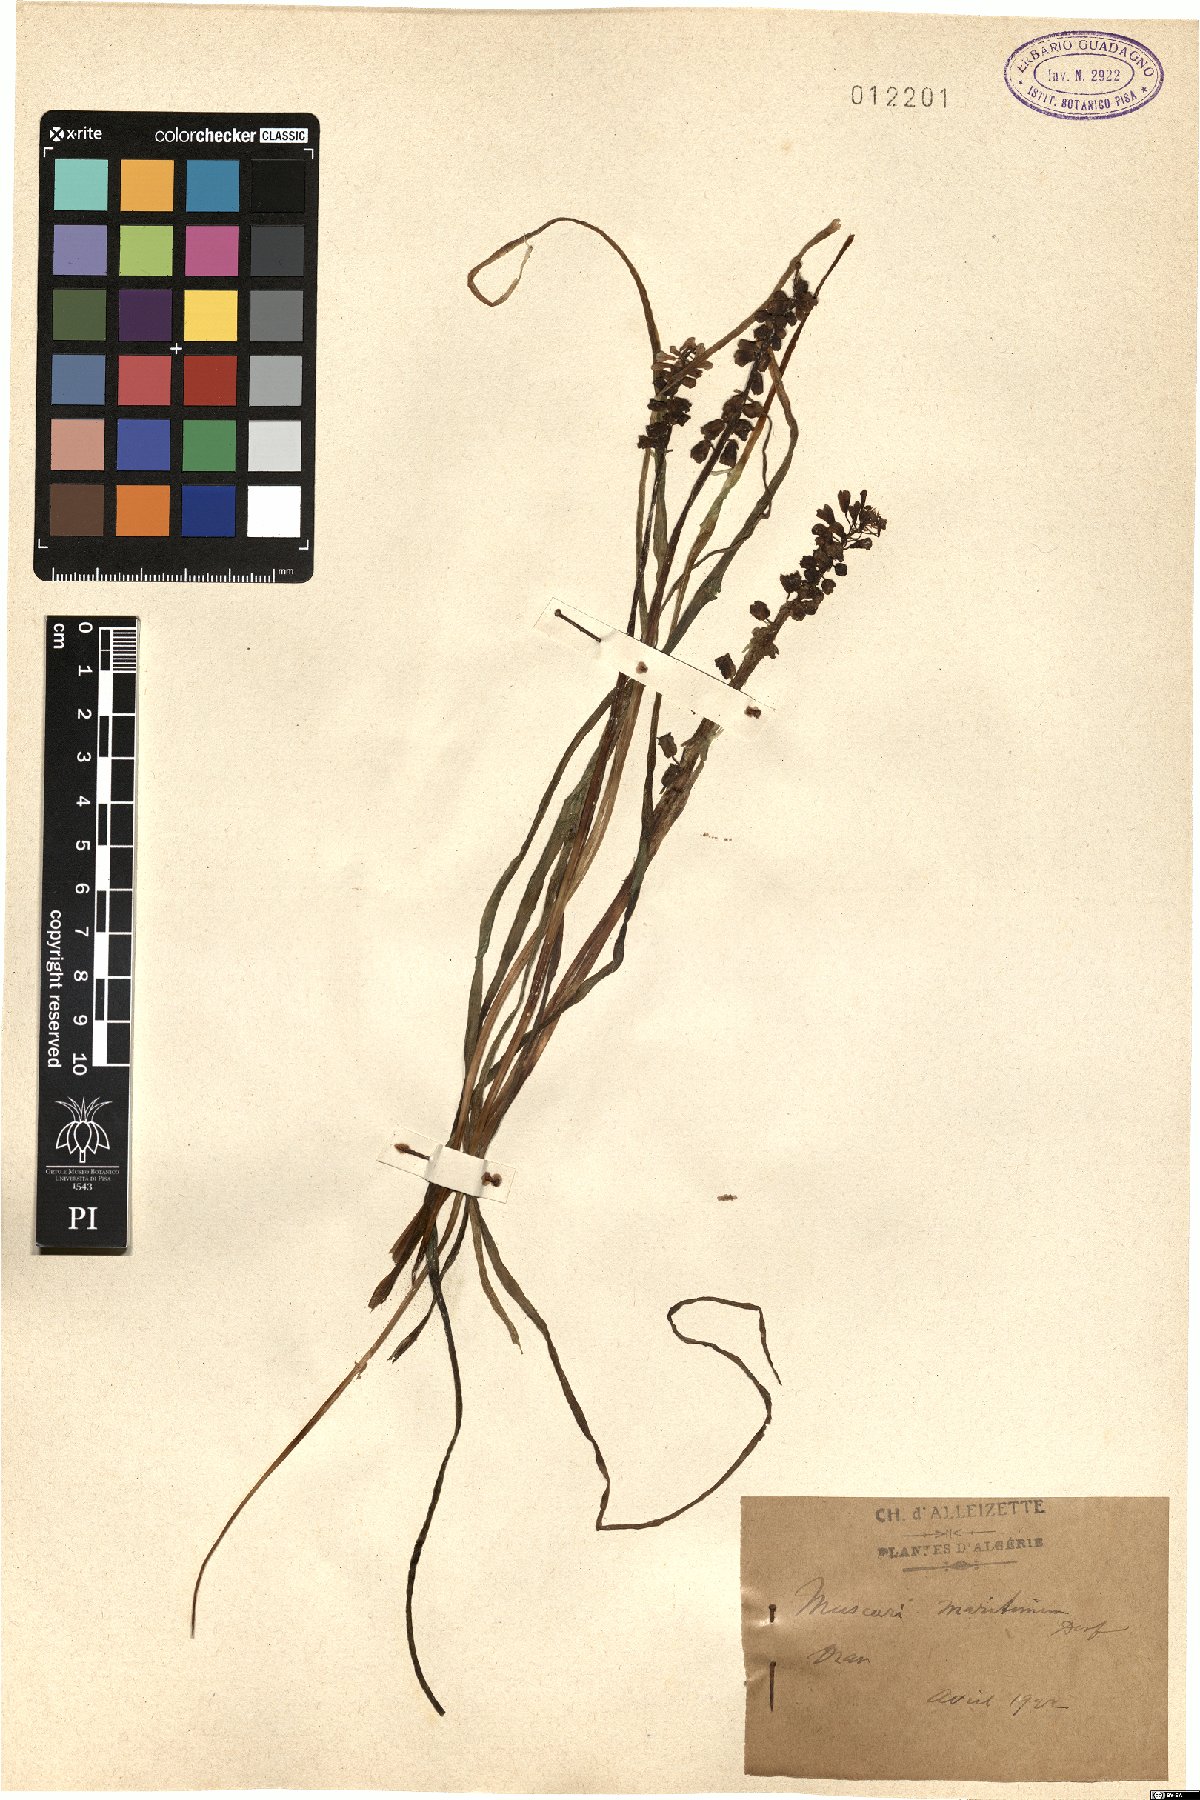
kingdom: Plantae
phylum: Tracheophyta
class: Liliopsida
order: Asparagales
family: Asparagaceae
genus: Muscari
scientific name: Muscari maritimum
